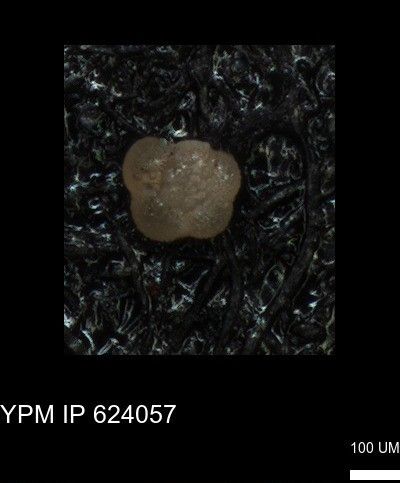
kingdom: Chromista
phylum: Foraminifera
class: Globothalamea
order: Rotaliida
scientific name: Rotaliida
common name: forams
